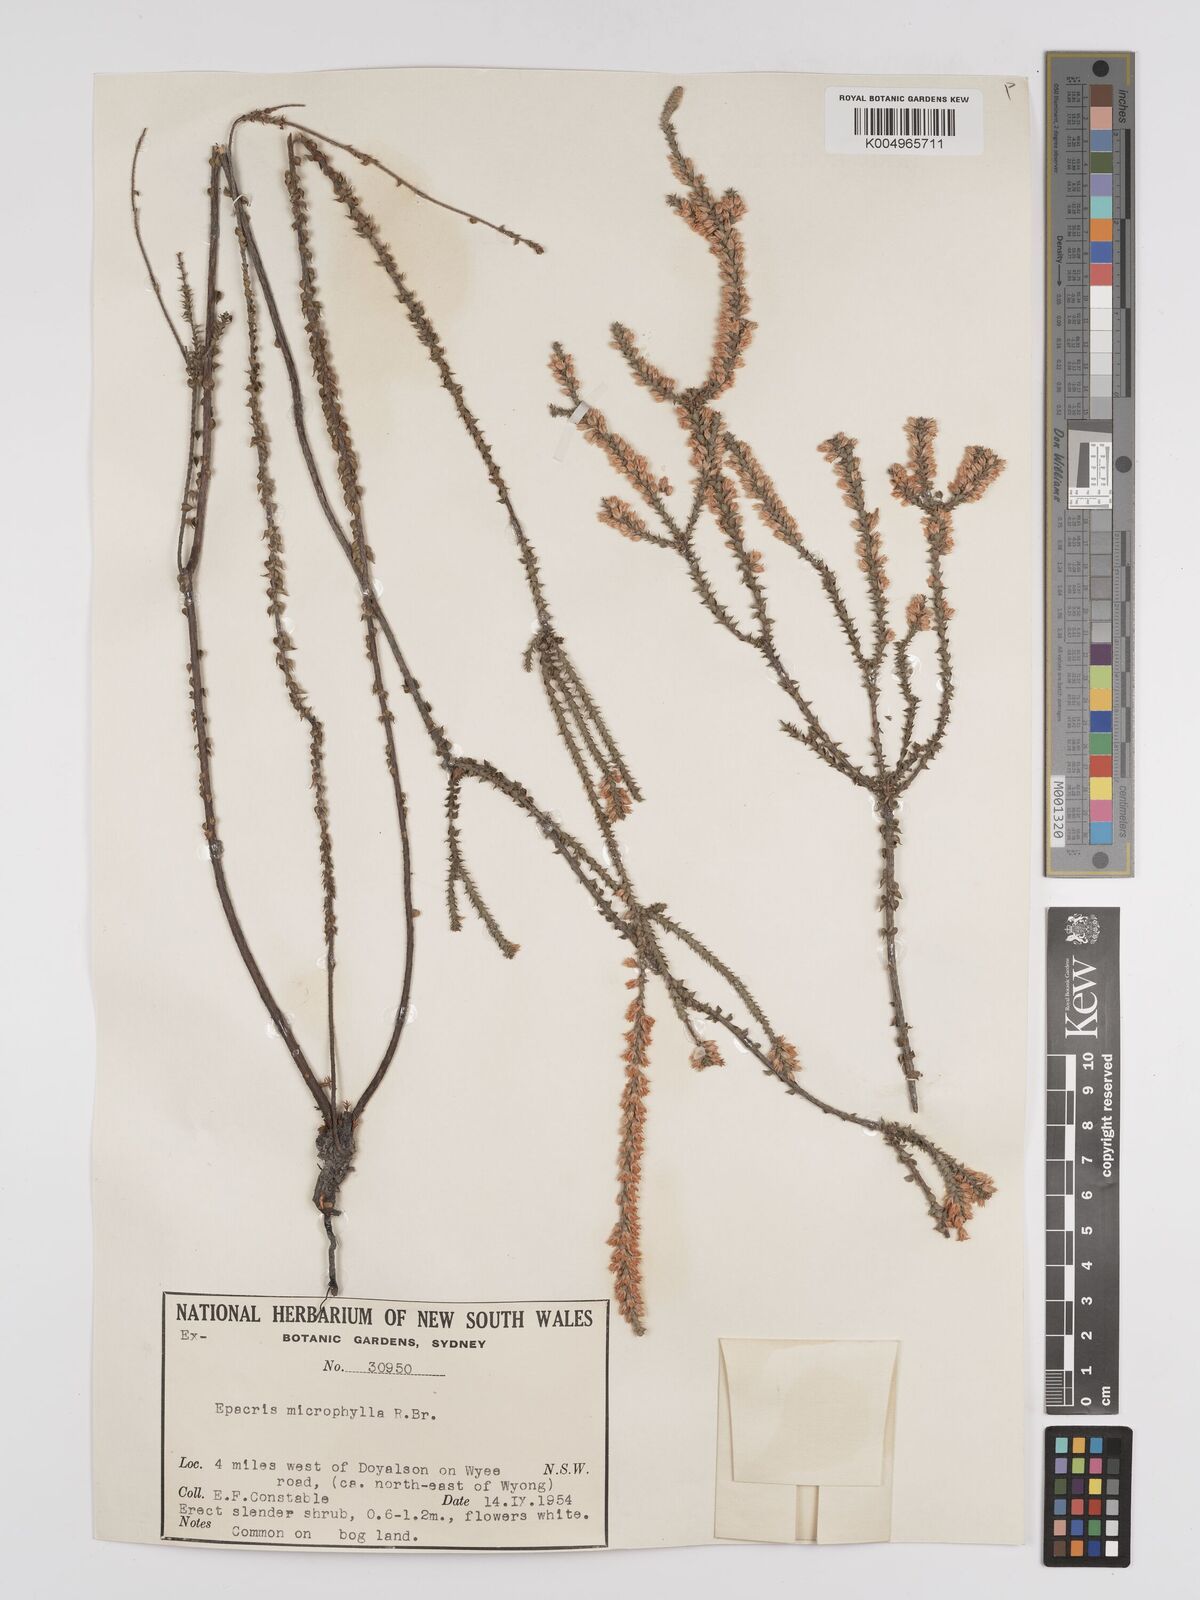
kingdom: Plantae
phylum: Tracheophyta
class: Magnoliopsida
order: Ericales
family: Ericaceae
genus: Epacris
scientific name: Epacris
